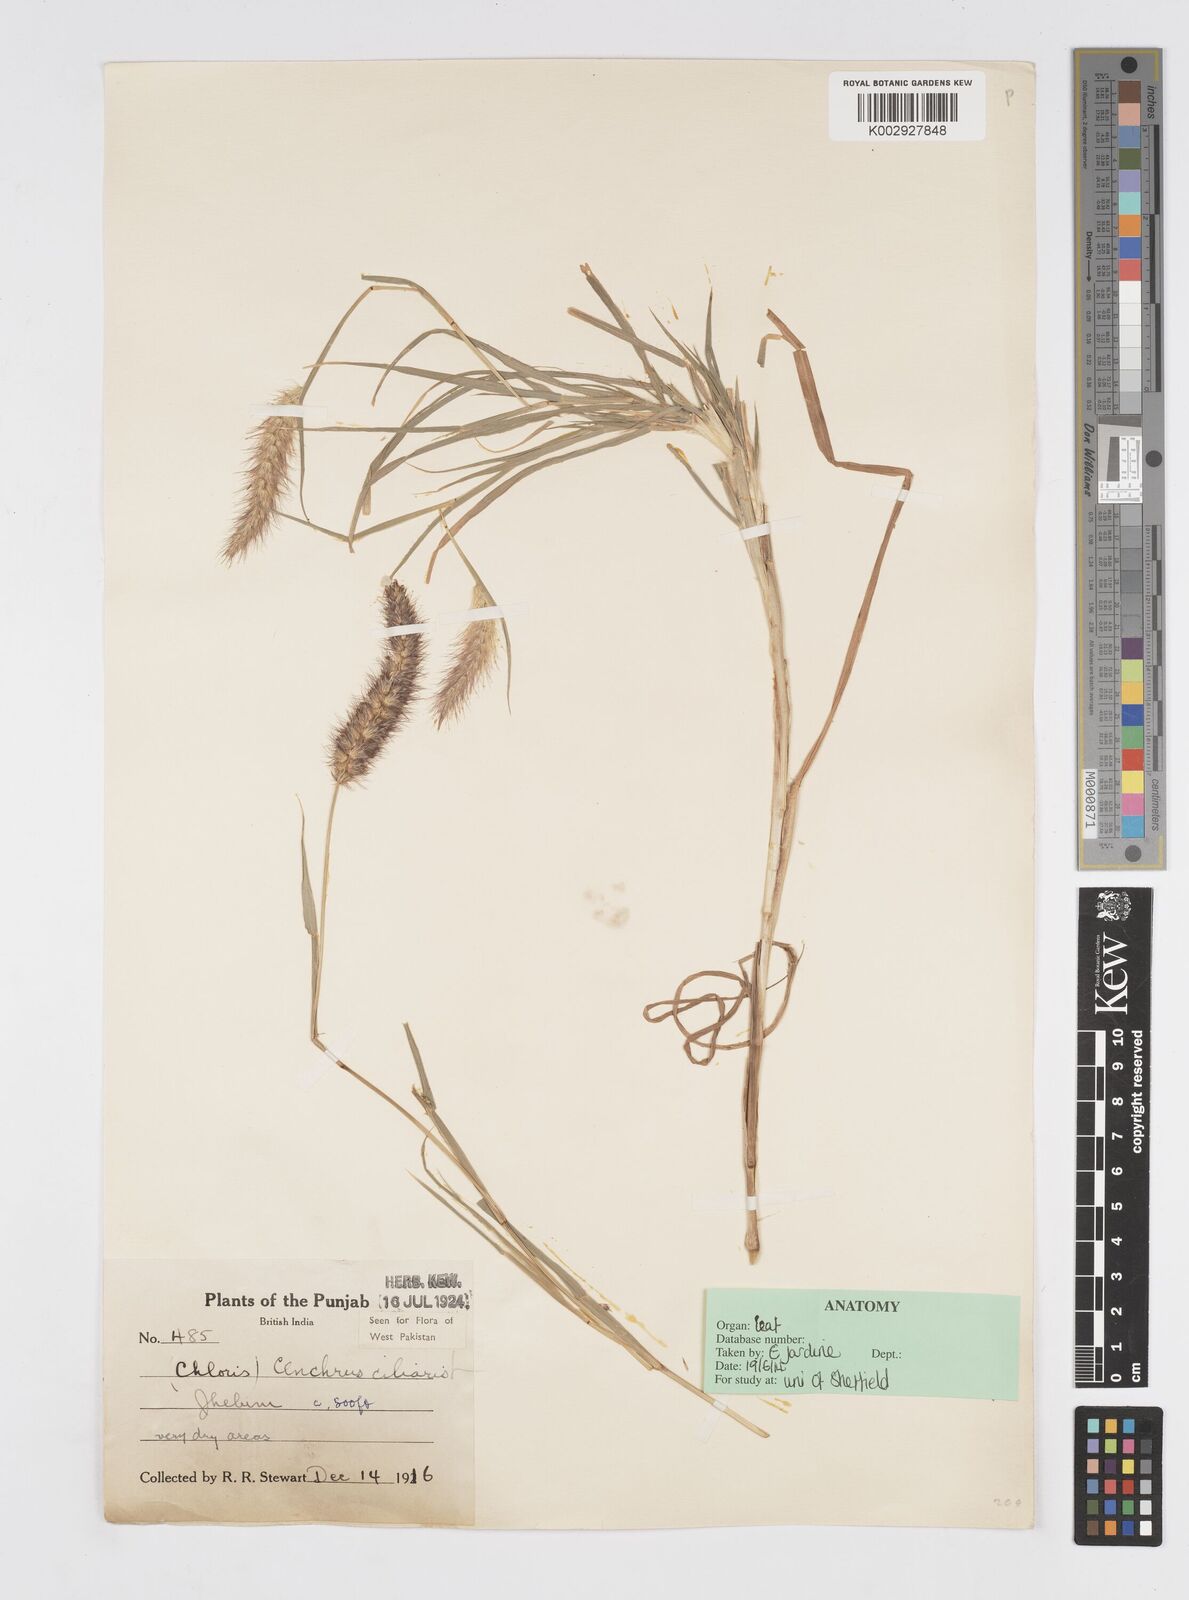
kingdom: Plantae
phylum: Tracheophyta
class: Liliopsida
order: Poales
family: Poaceae
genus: Cenchrus
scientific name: Cenchrus ciliaris
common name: Buffelgrass
